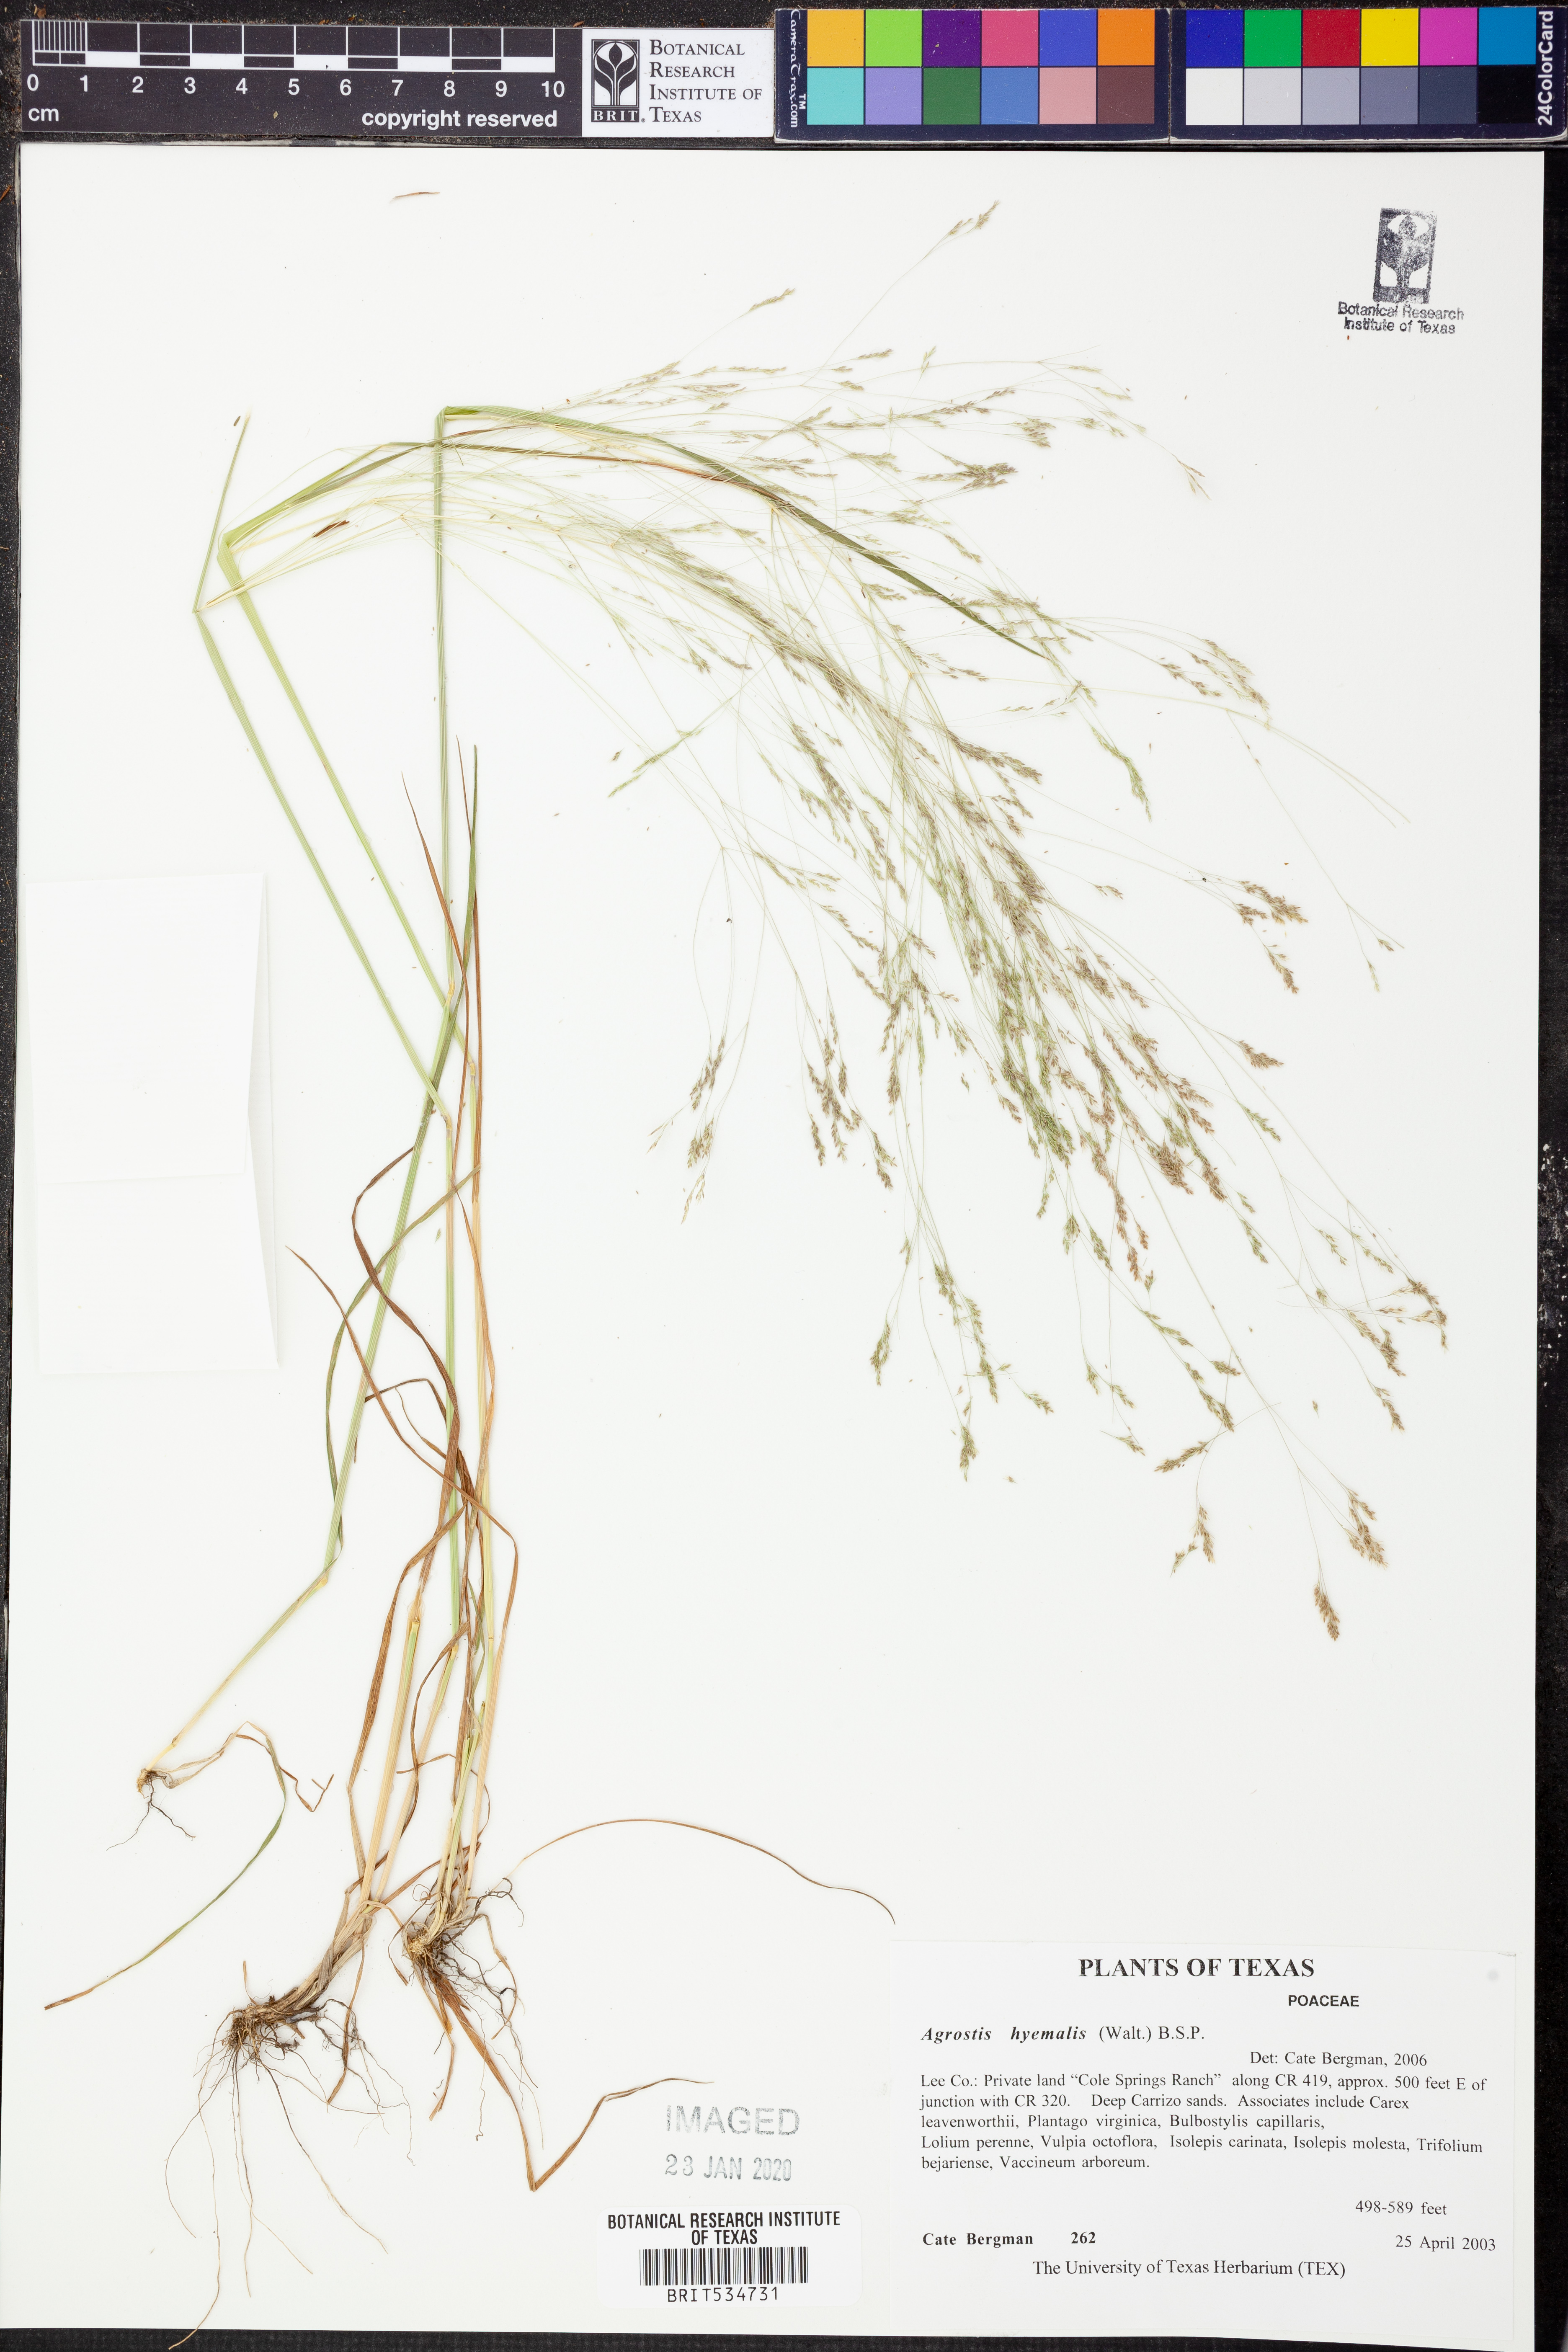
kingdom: Plantae
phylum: Tracheophyta
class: Liliopsida
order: Poales
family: Poaceae
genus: Agrostis
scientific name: Agrostis hyemalis
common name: Small bent
